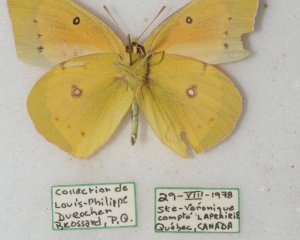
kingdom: Animalia
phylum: Arthropoda
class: Insecta
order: Lepidoptera
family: Pieridae
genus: Colias
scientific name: Colias eurytheme
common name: Orange Sulphur
